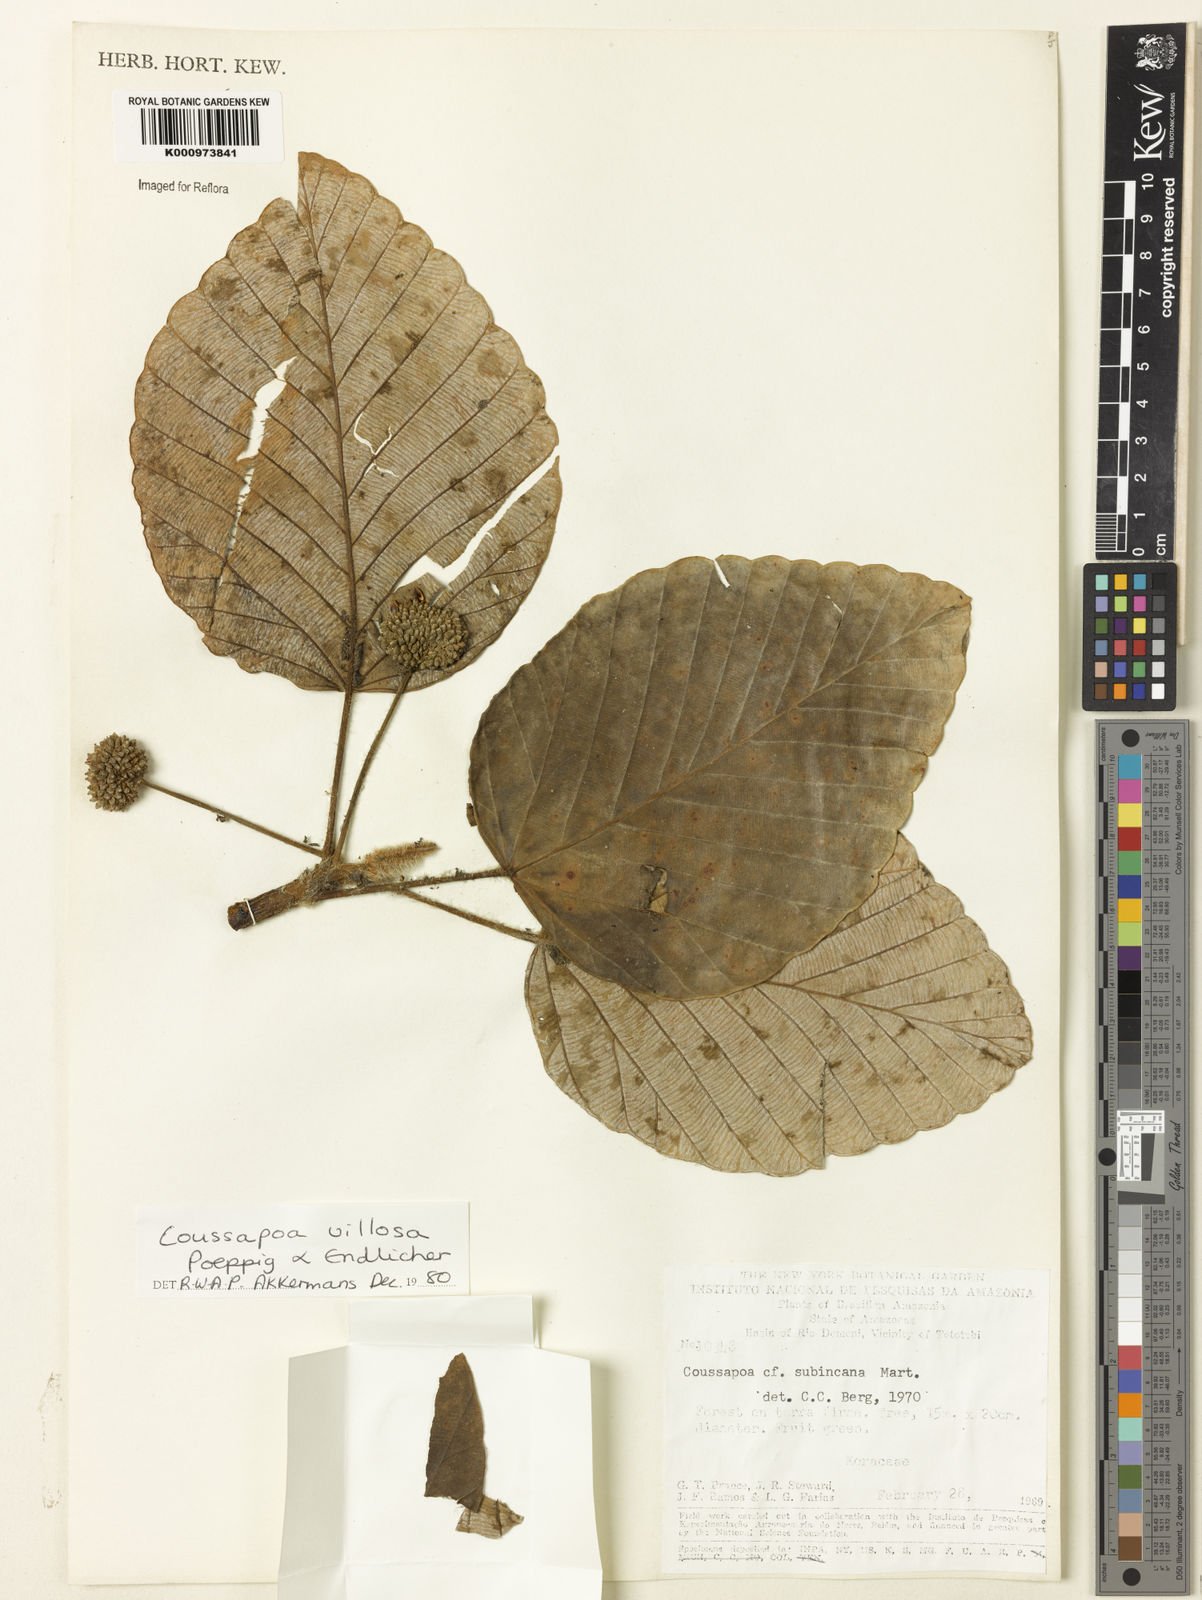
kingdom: Plantae
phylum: Tracheophyta
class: Magnoliopsida
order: Rosales
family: Urticaceae
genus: Coussapoa
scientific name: Coussapoa villosa
